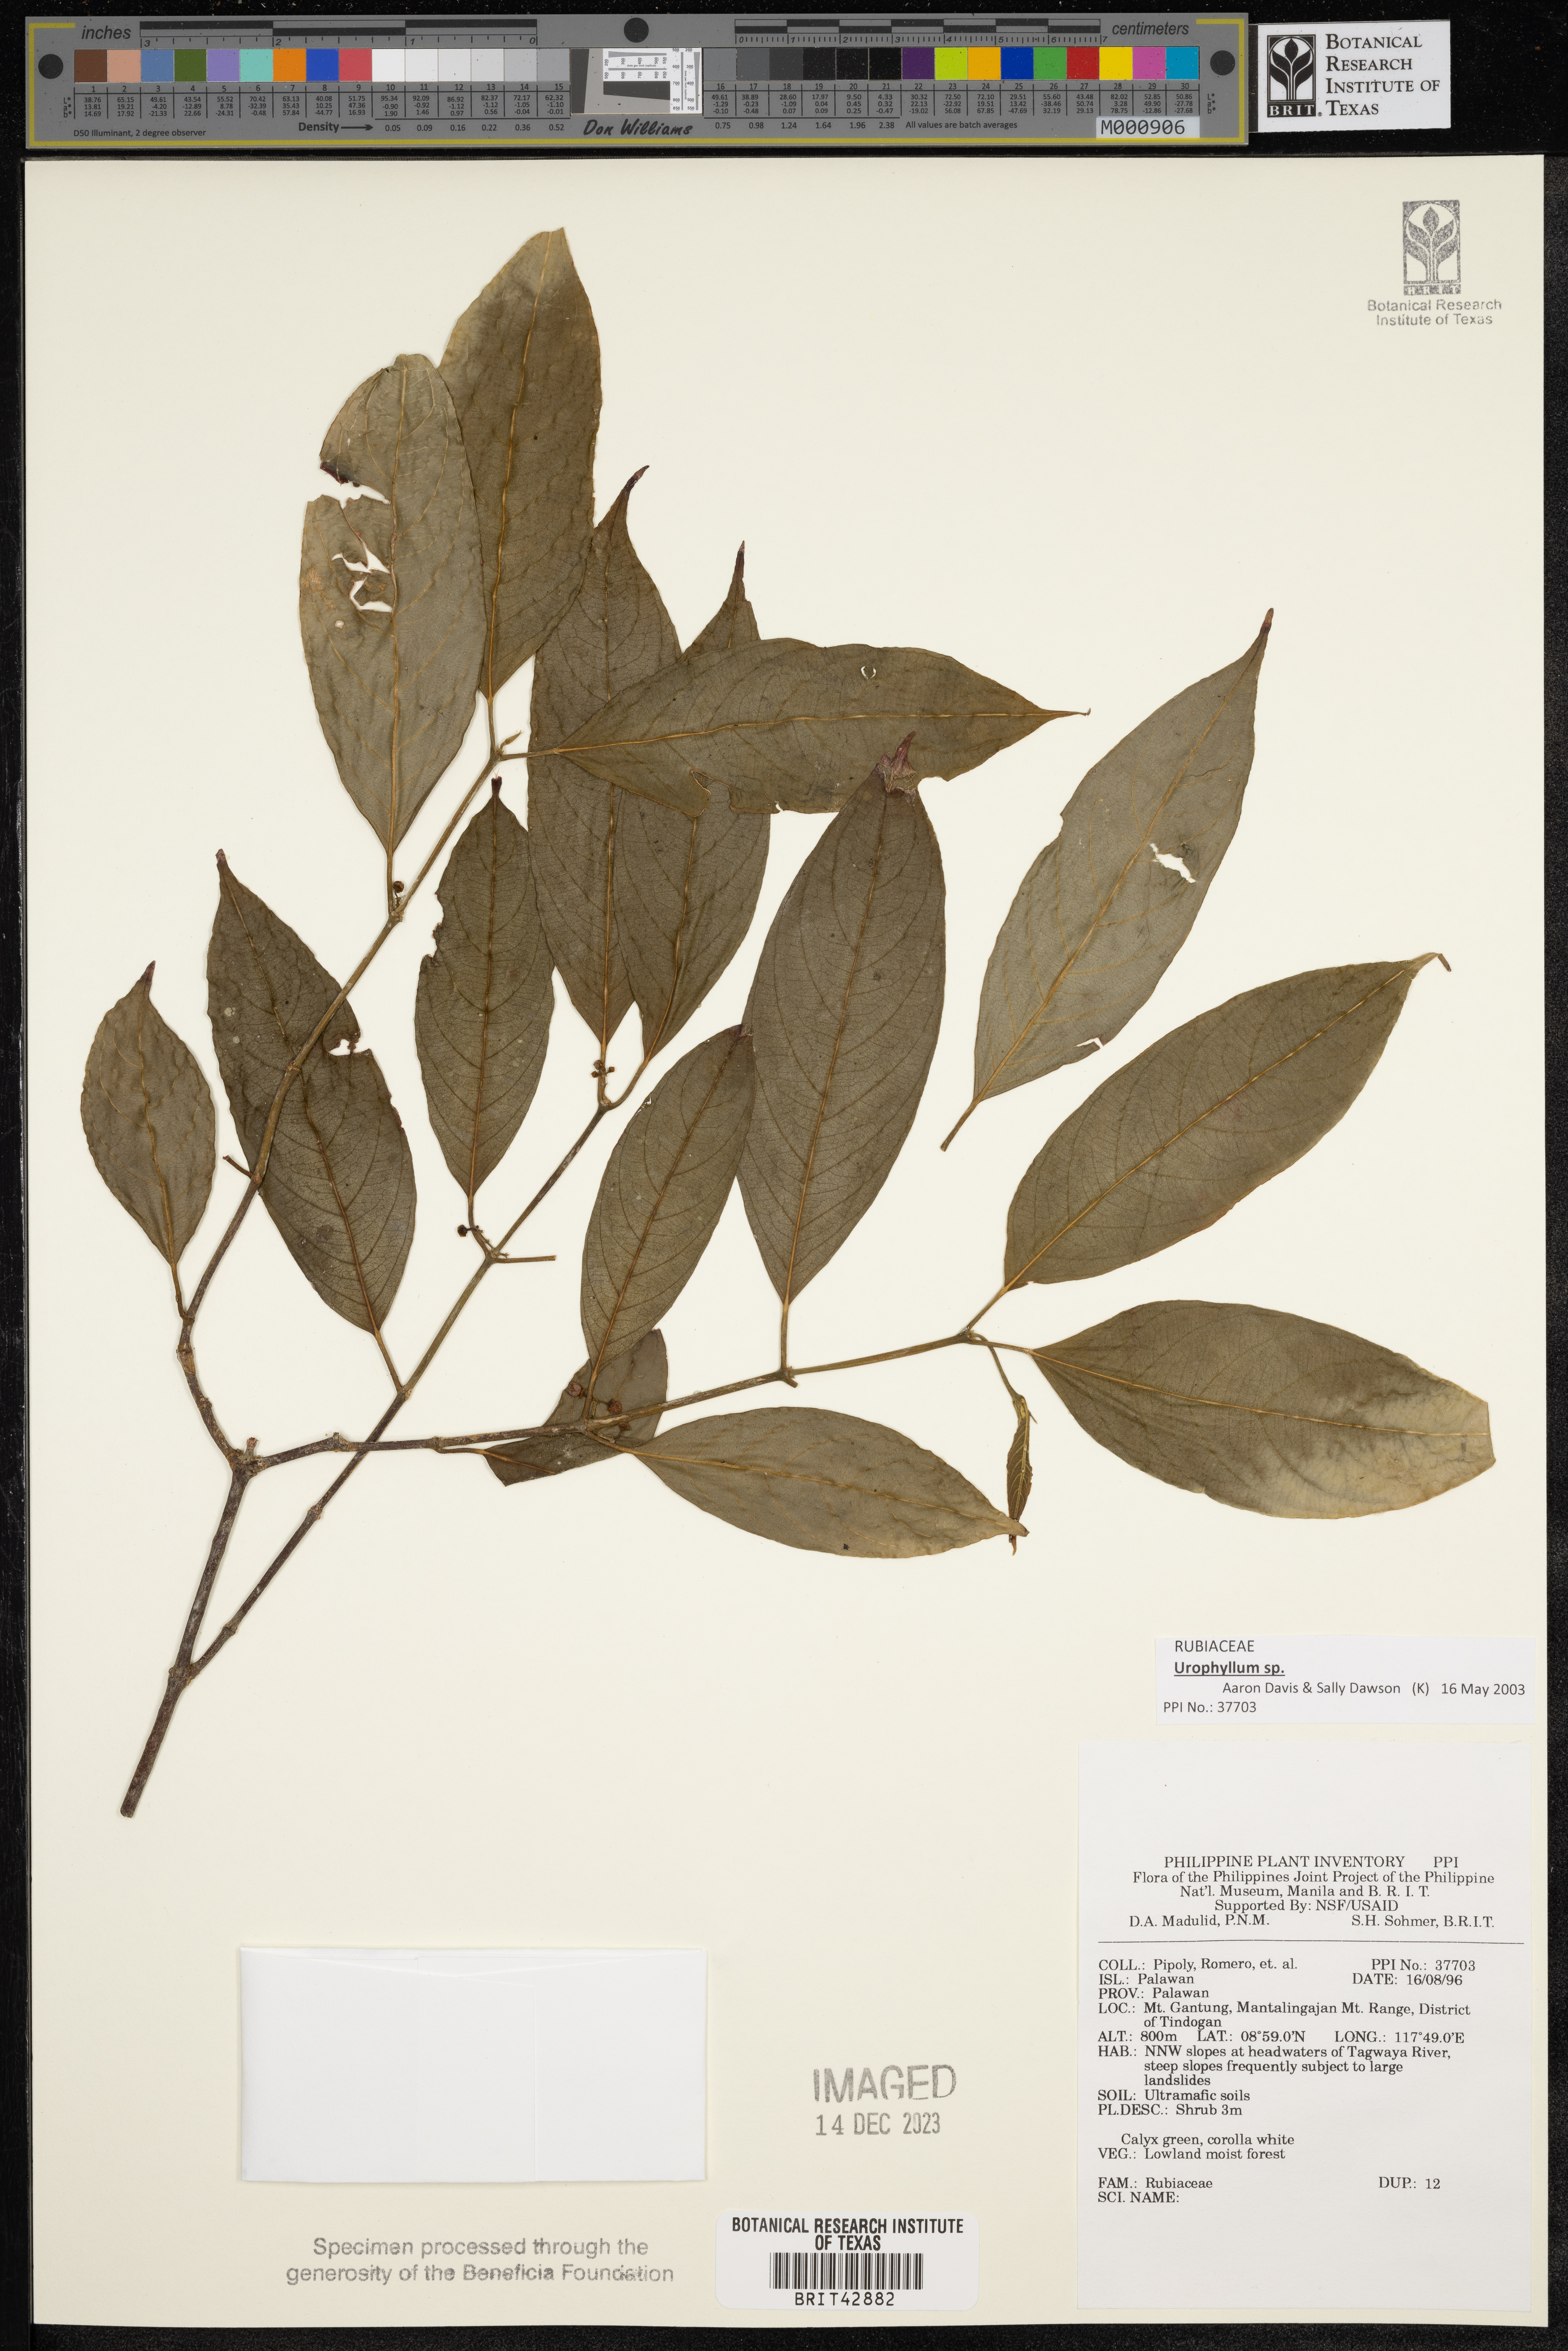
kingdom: Plantae
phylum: Tracheophyta
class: Magnoliopsida
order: Gentianales
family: Rubiaceae
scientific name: Rubiaceae
